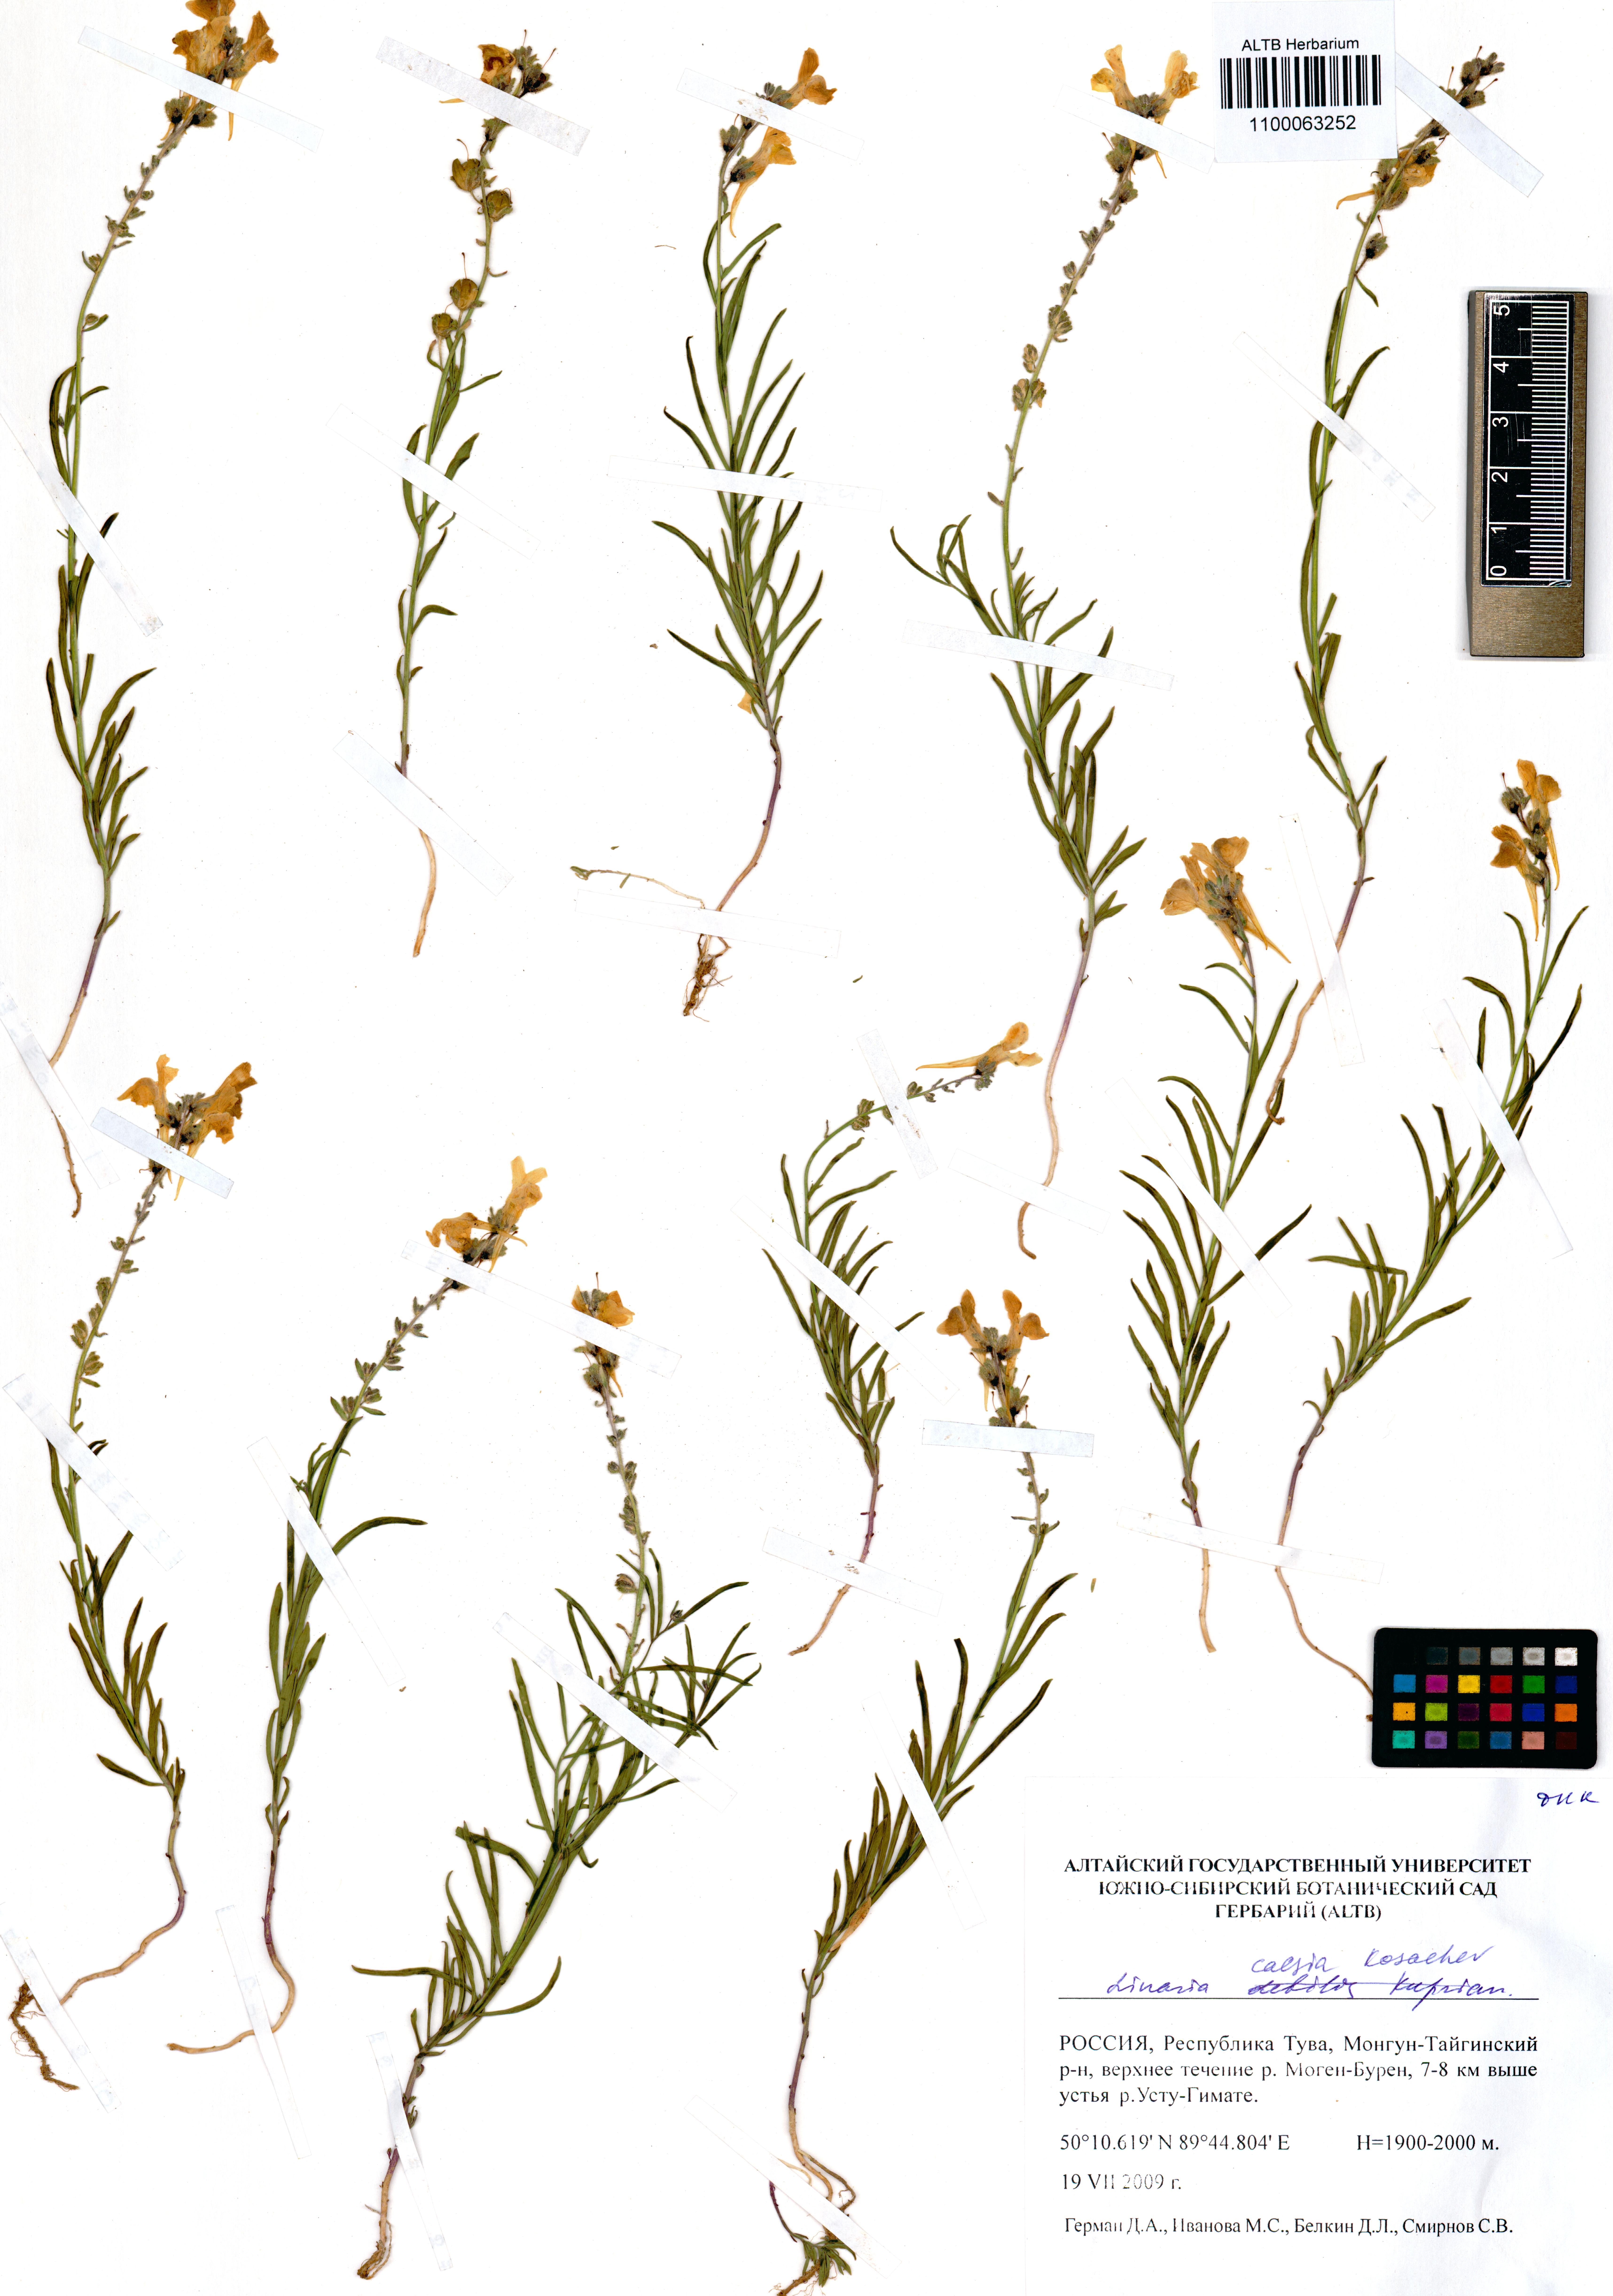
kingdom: Plantae
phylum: Tracheophyta
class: Magnoliopsida
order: Lamiales
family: Plantaginaceae
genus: Linaria
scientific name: Linaria caesia
